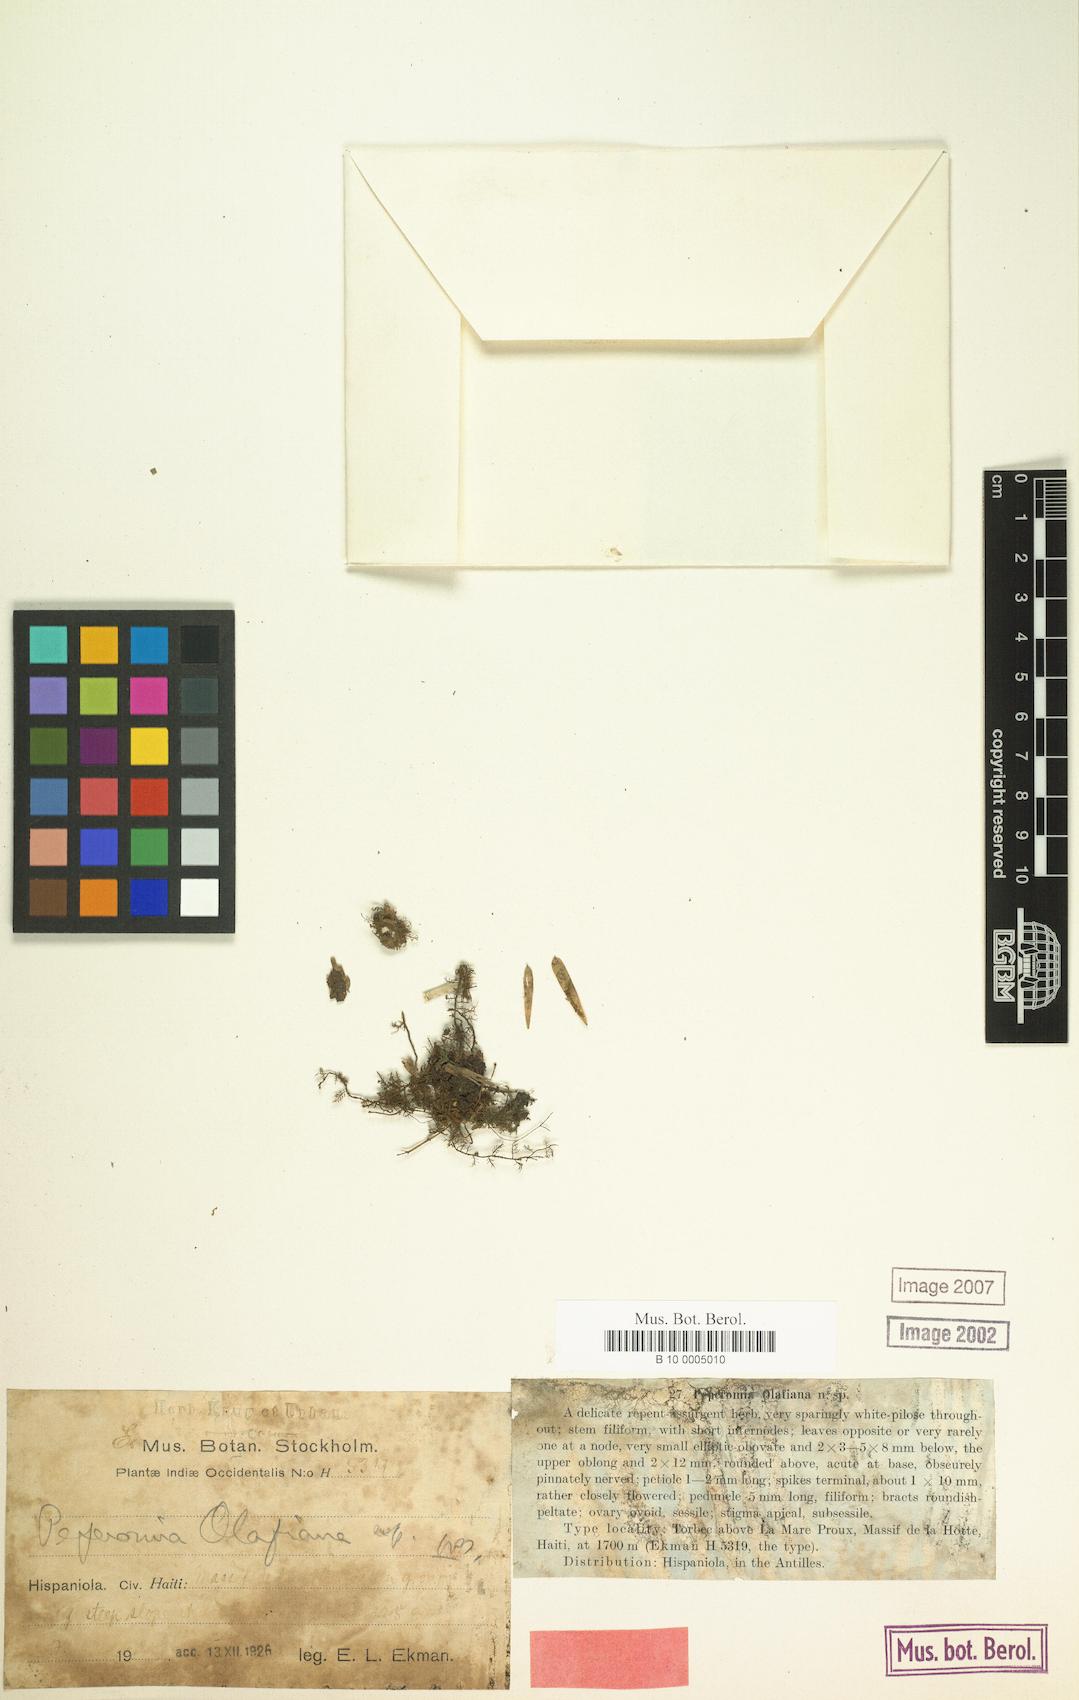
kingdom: Plantae
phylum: Tracheophyta
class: Magnoliopsida
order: Piperales
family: Piperaceae
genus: Peperomia
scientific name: Peperomia olafiana
